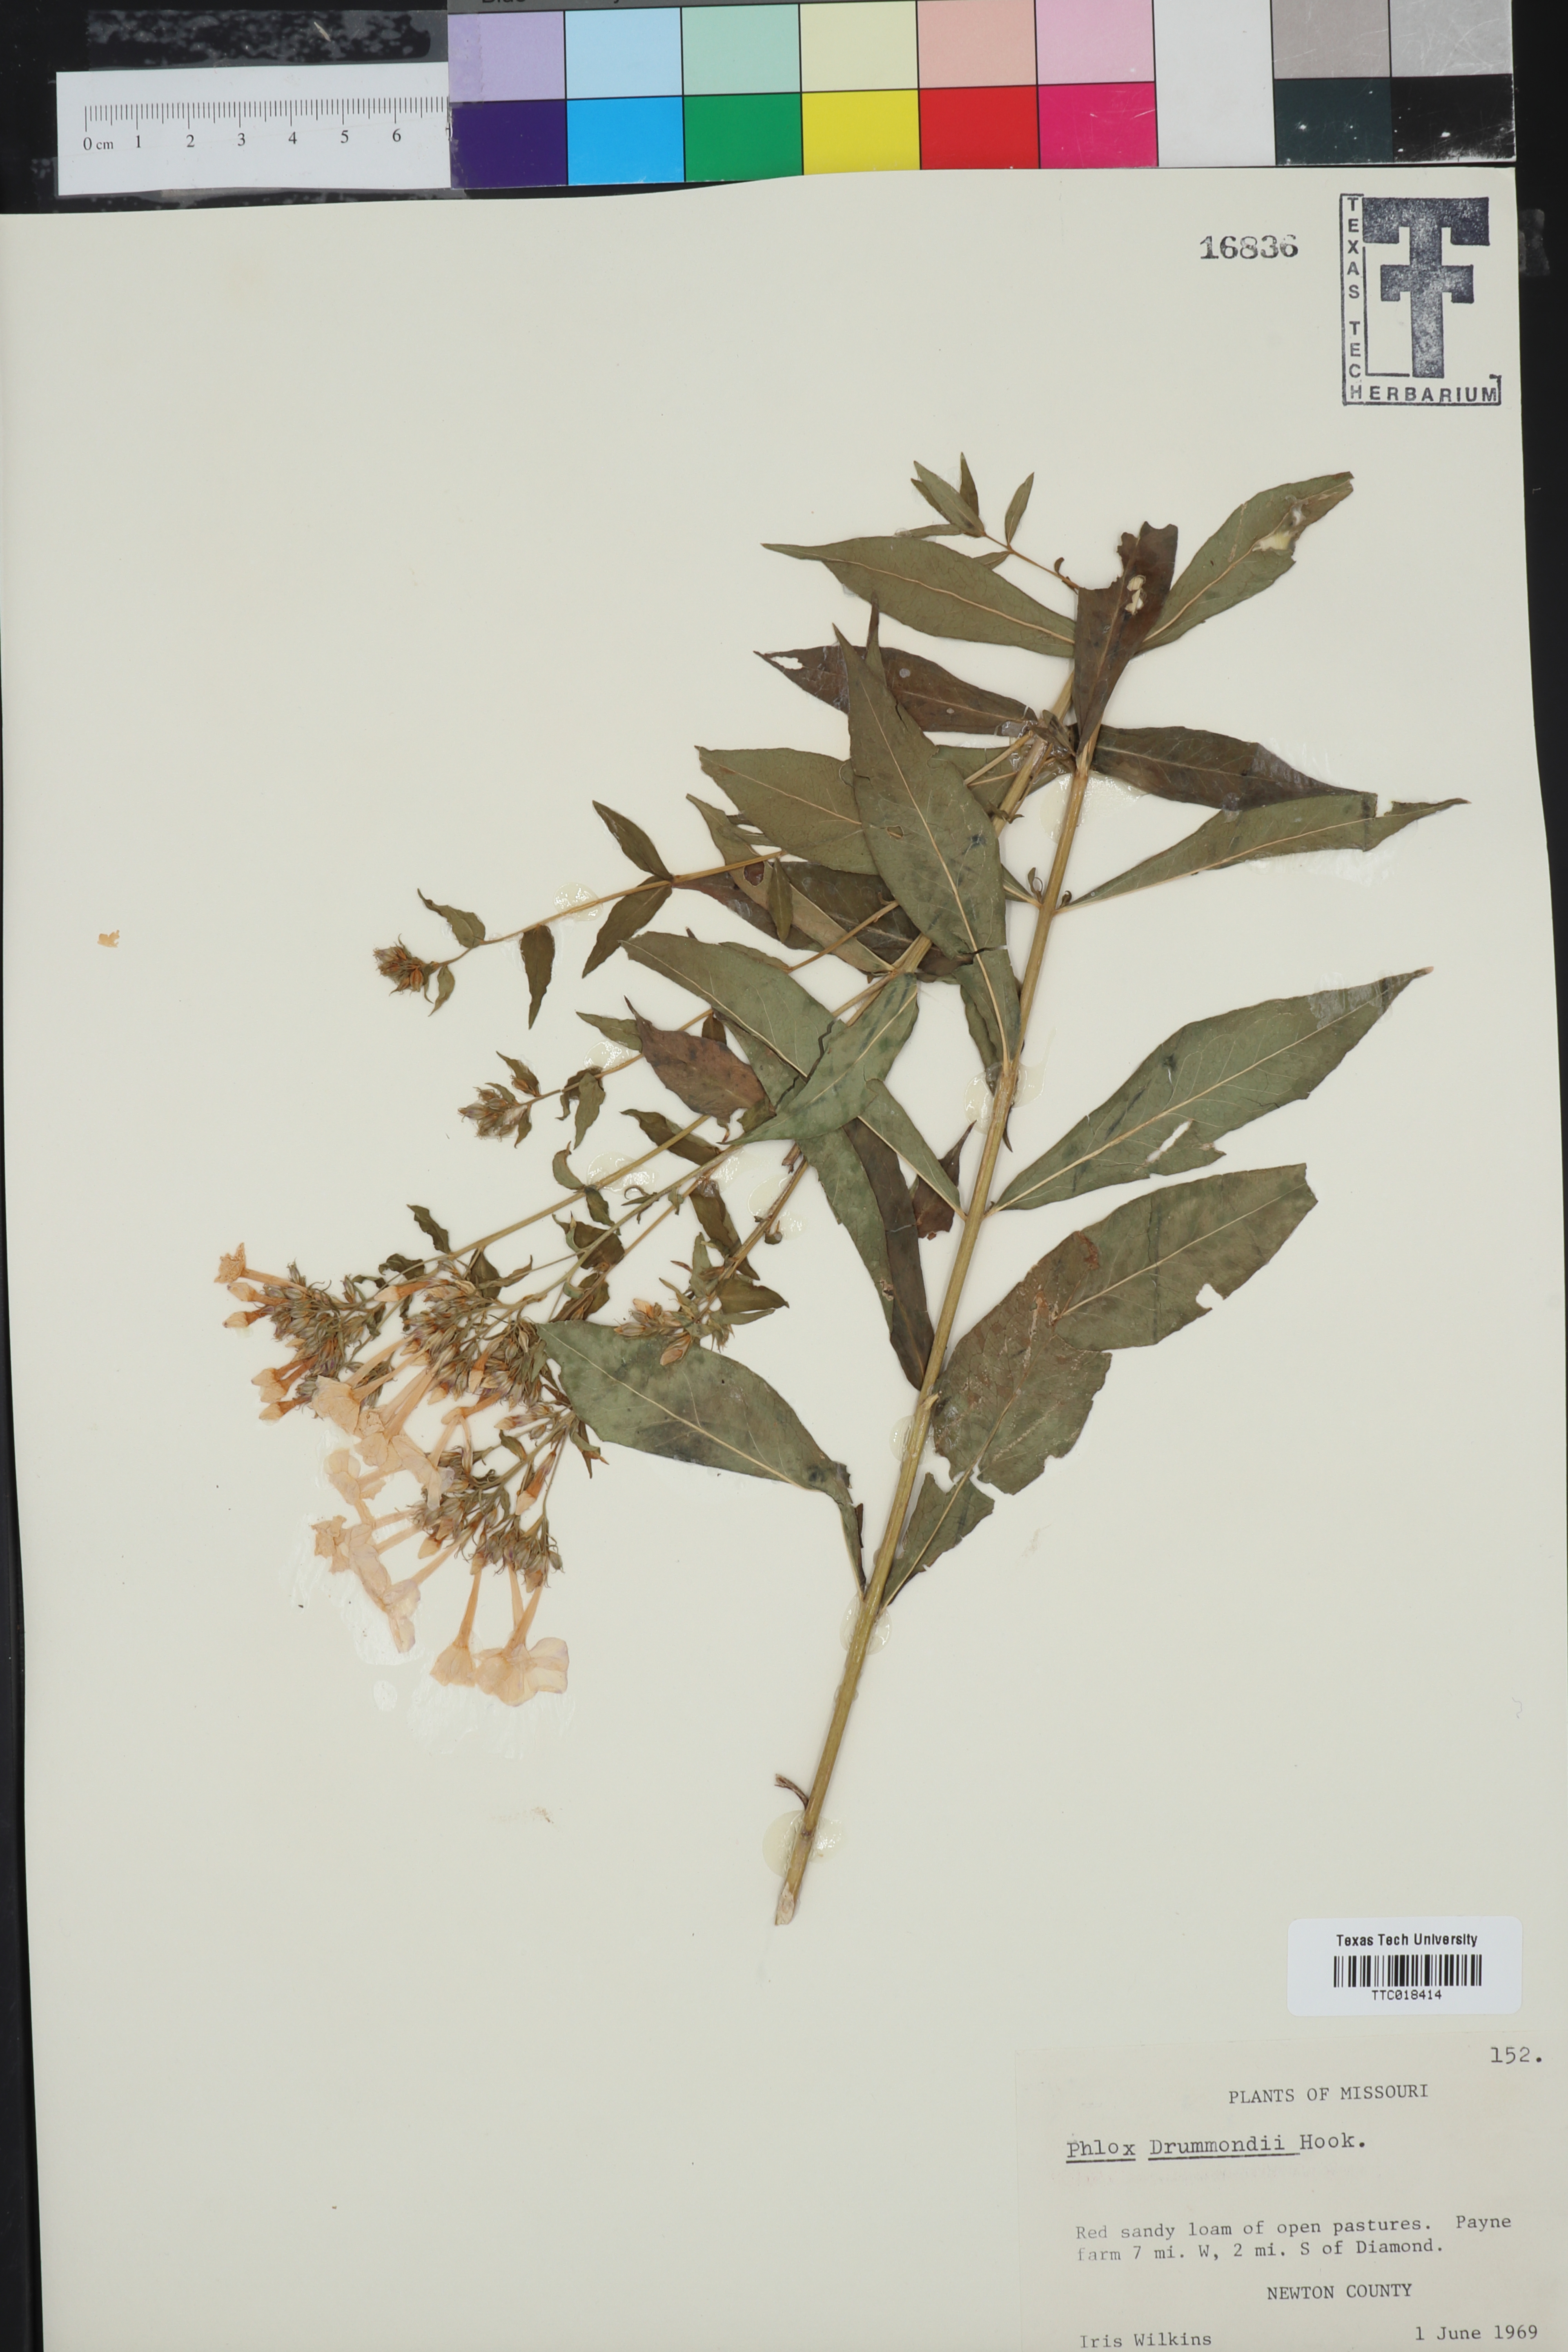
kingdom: Plantae
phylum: Tracheophyta
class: Magnoliopsida
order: Ericales
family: Polemoniaceae
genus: Phlox
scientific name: Phlox drummondii
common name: Drummond's phlox
